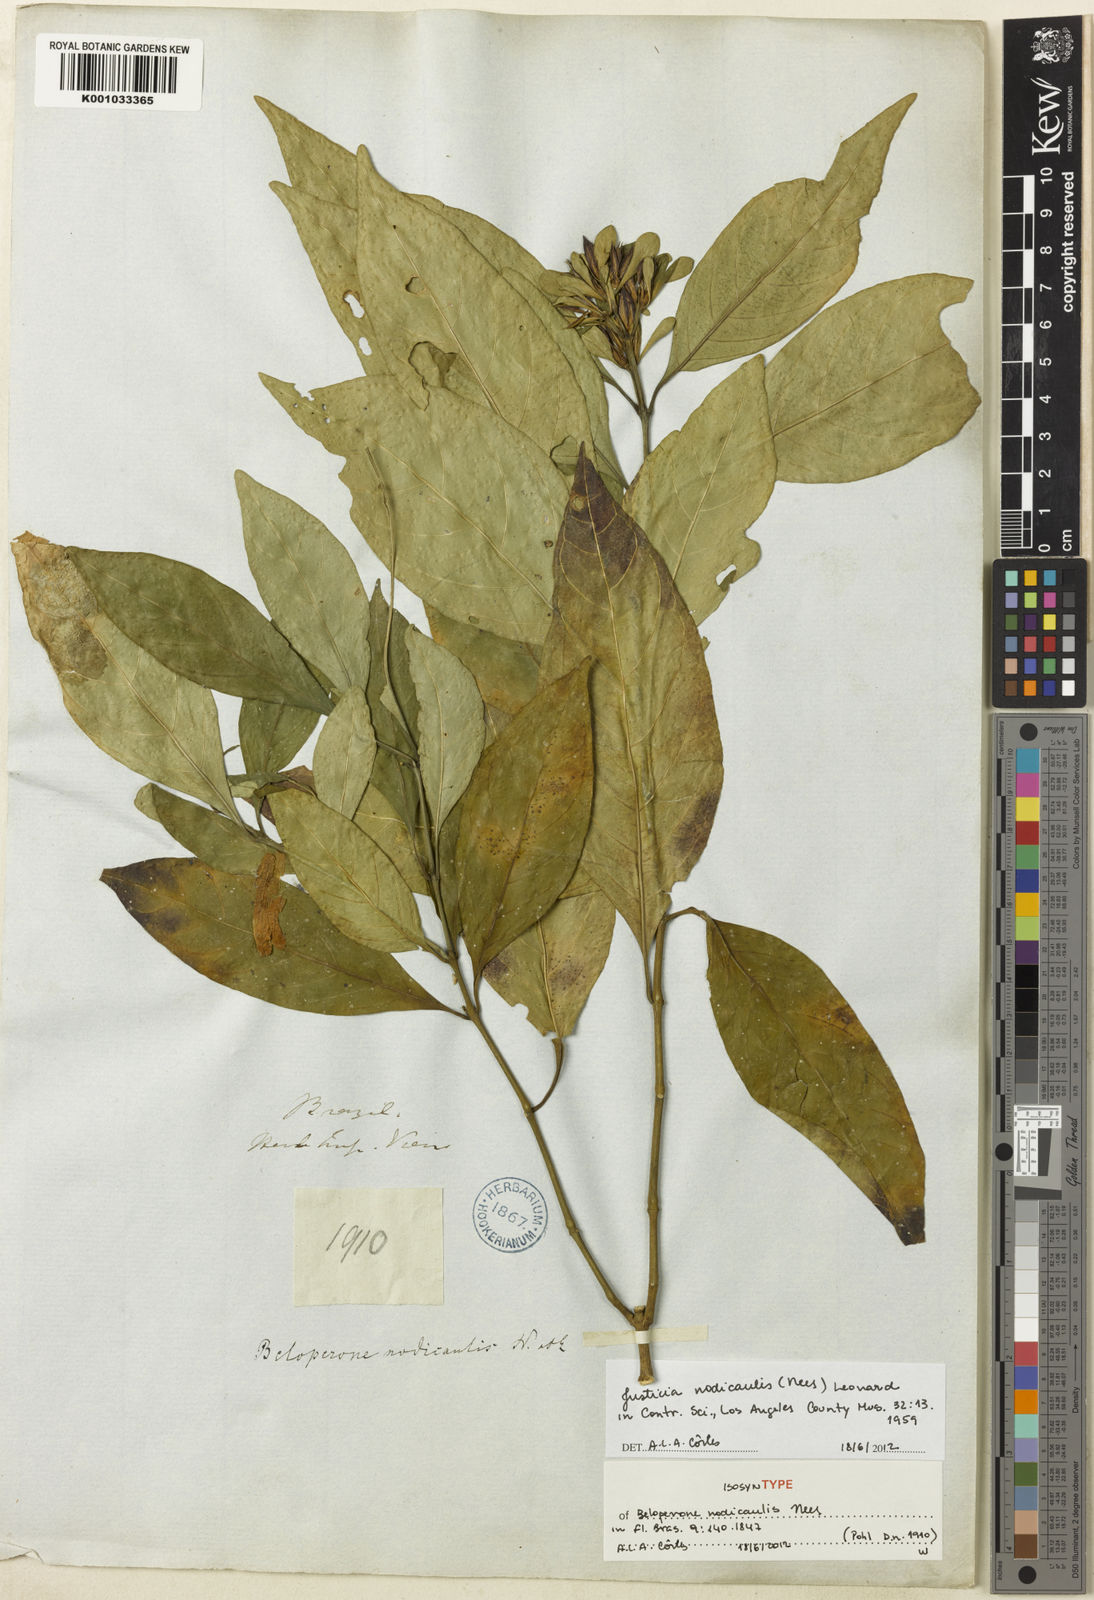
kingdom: Plantae
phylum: Tracheophyta
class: Magnoliopsida
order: Lamiales
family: Acanthaceae
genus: Justicia
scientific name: Justicia nodicaulis
